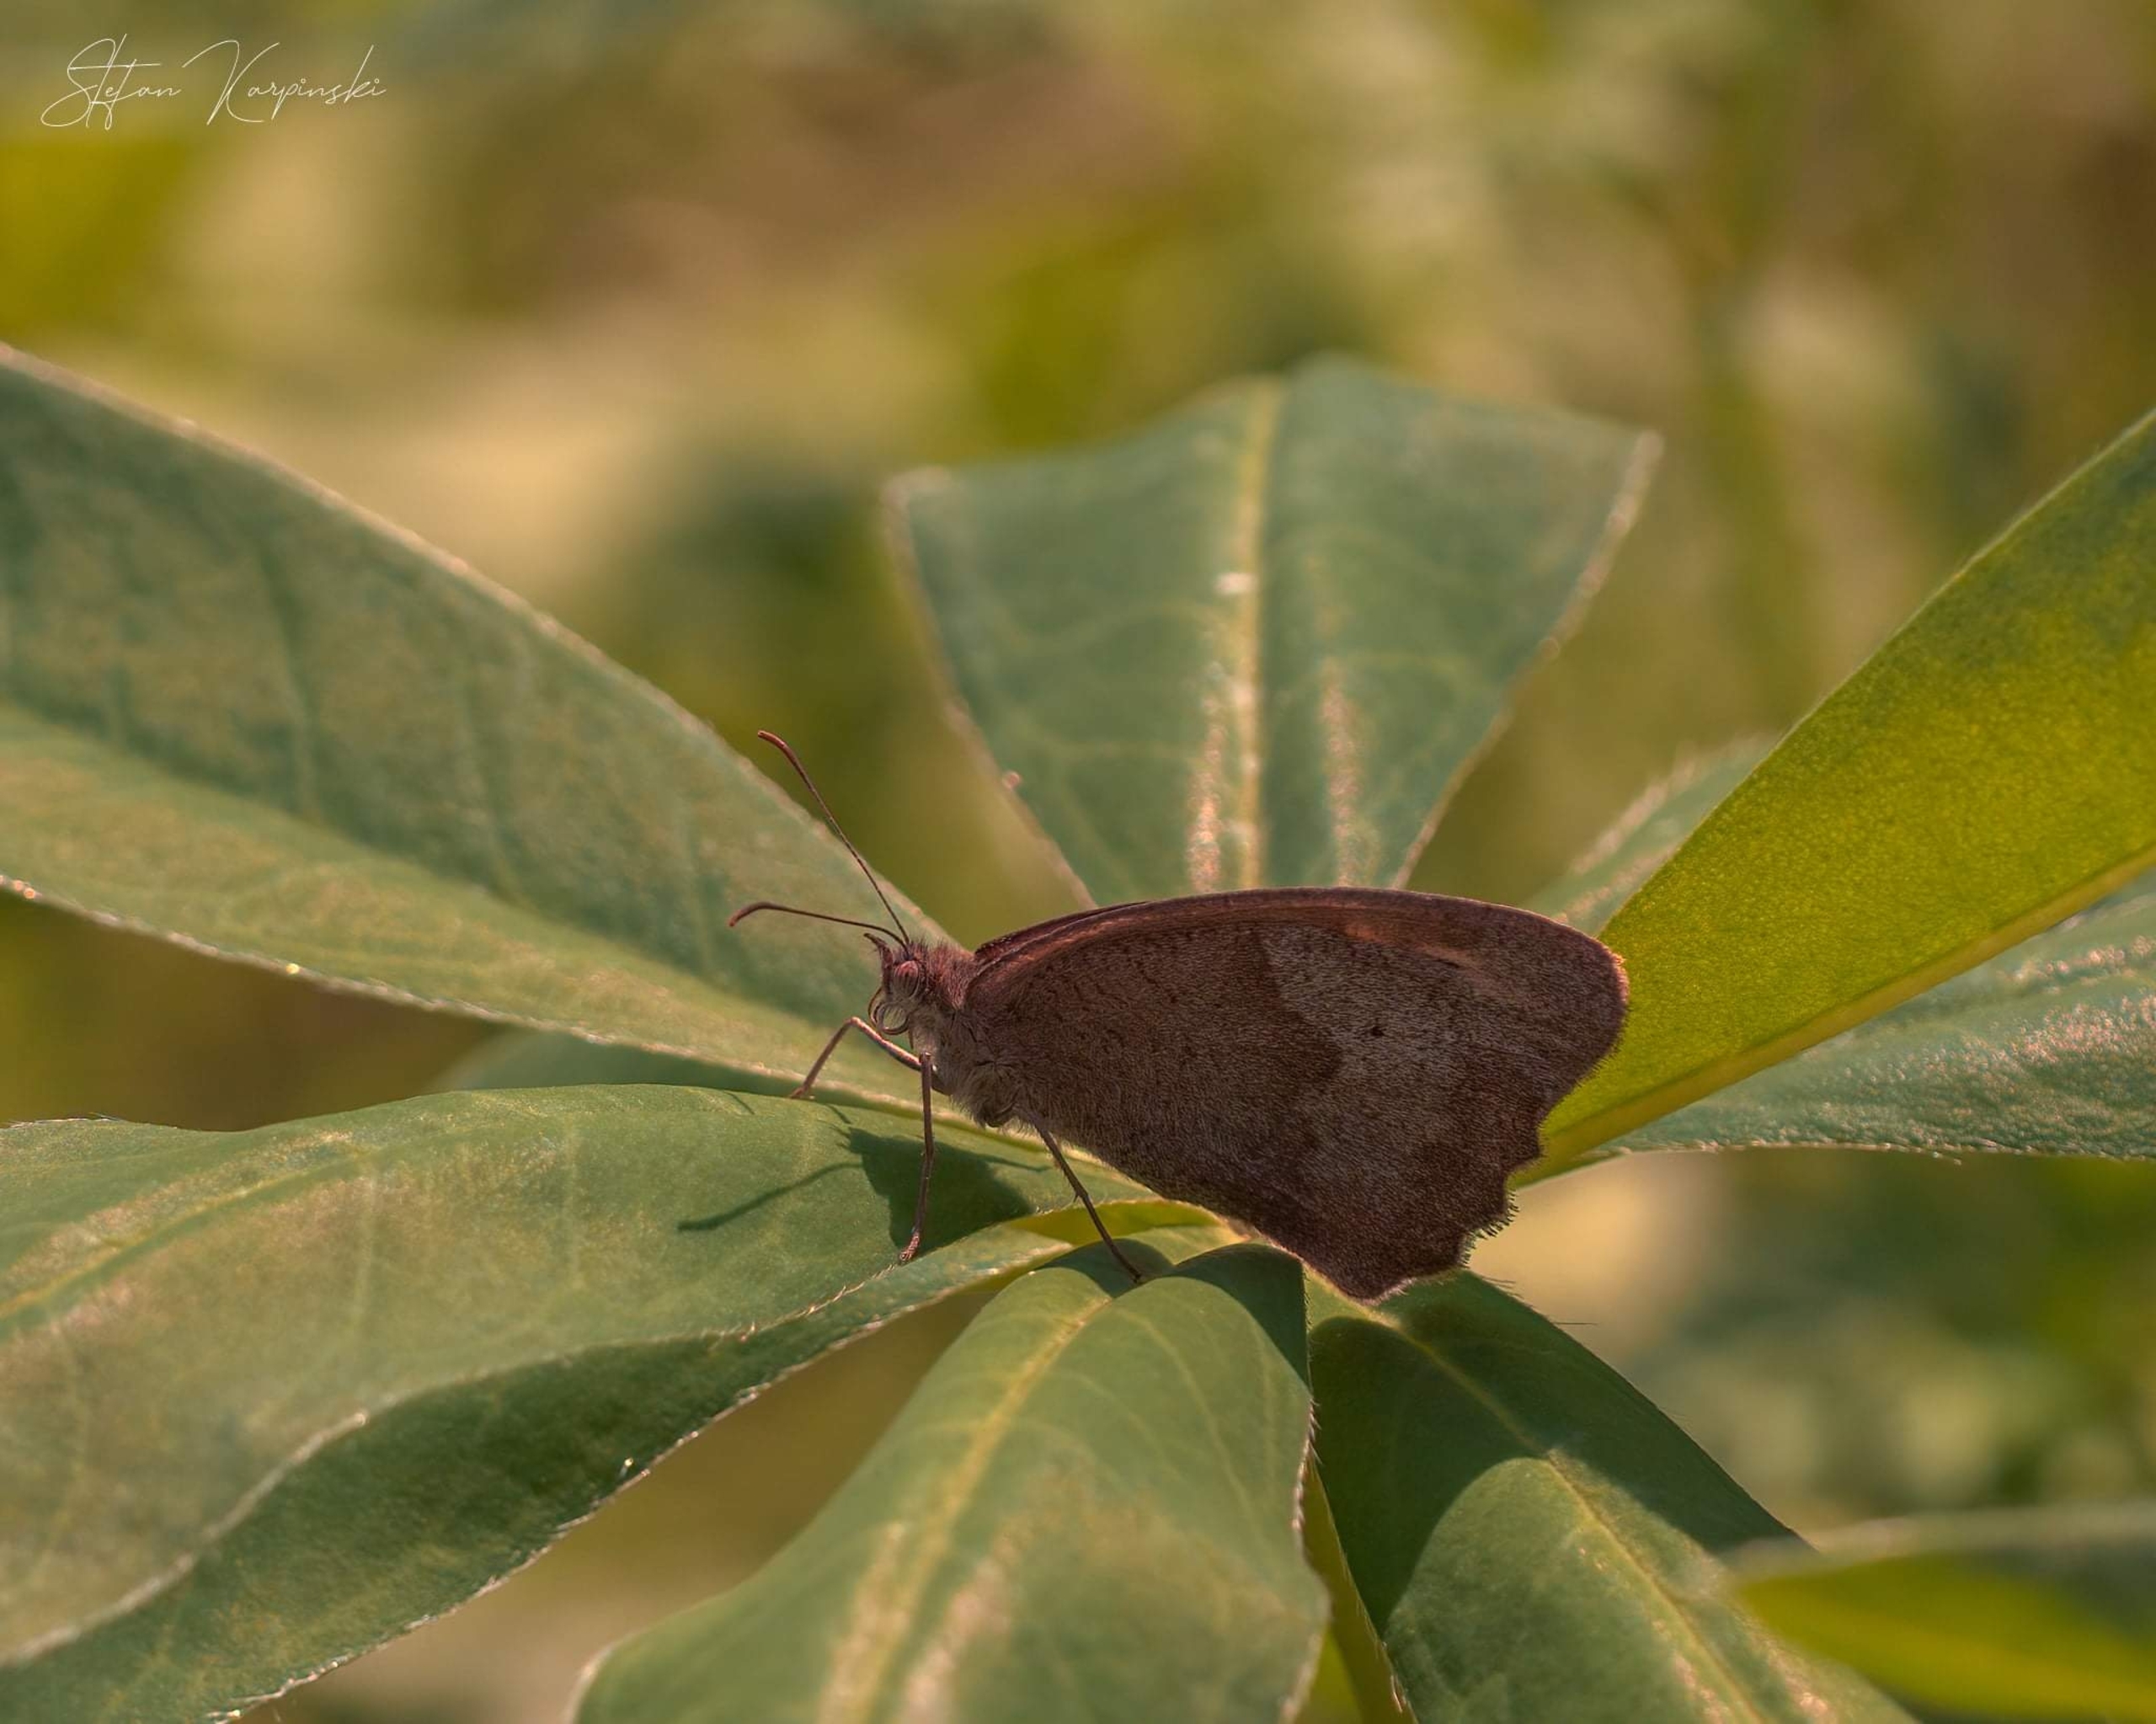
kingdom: Animalia
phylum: Arthropoda
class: Insecta
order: Lepidoptera
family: Nymphalidae
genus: Maniola
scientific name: Maniola jurtina
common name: Græsrandøje
